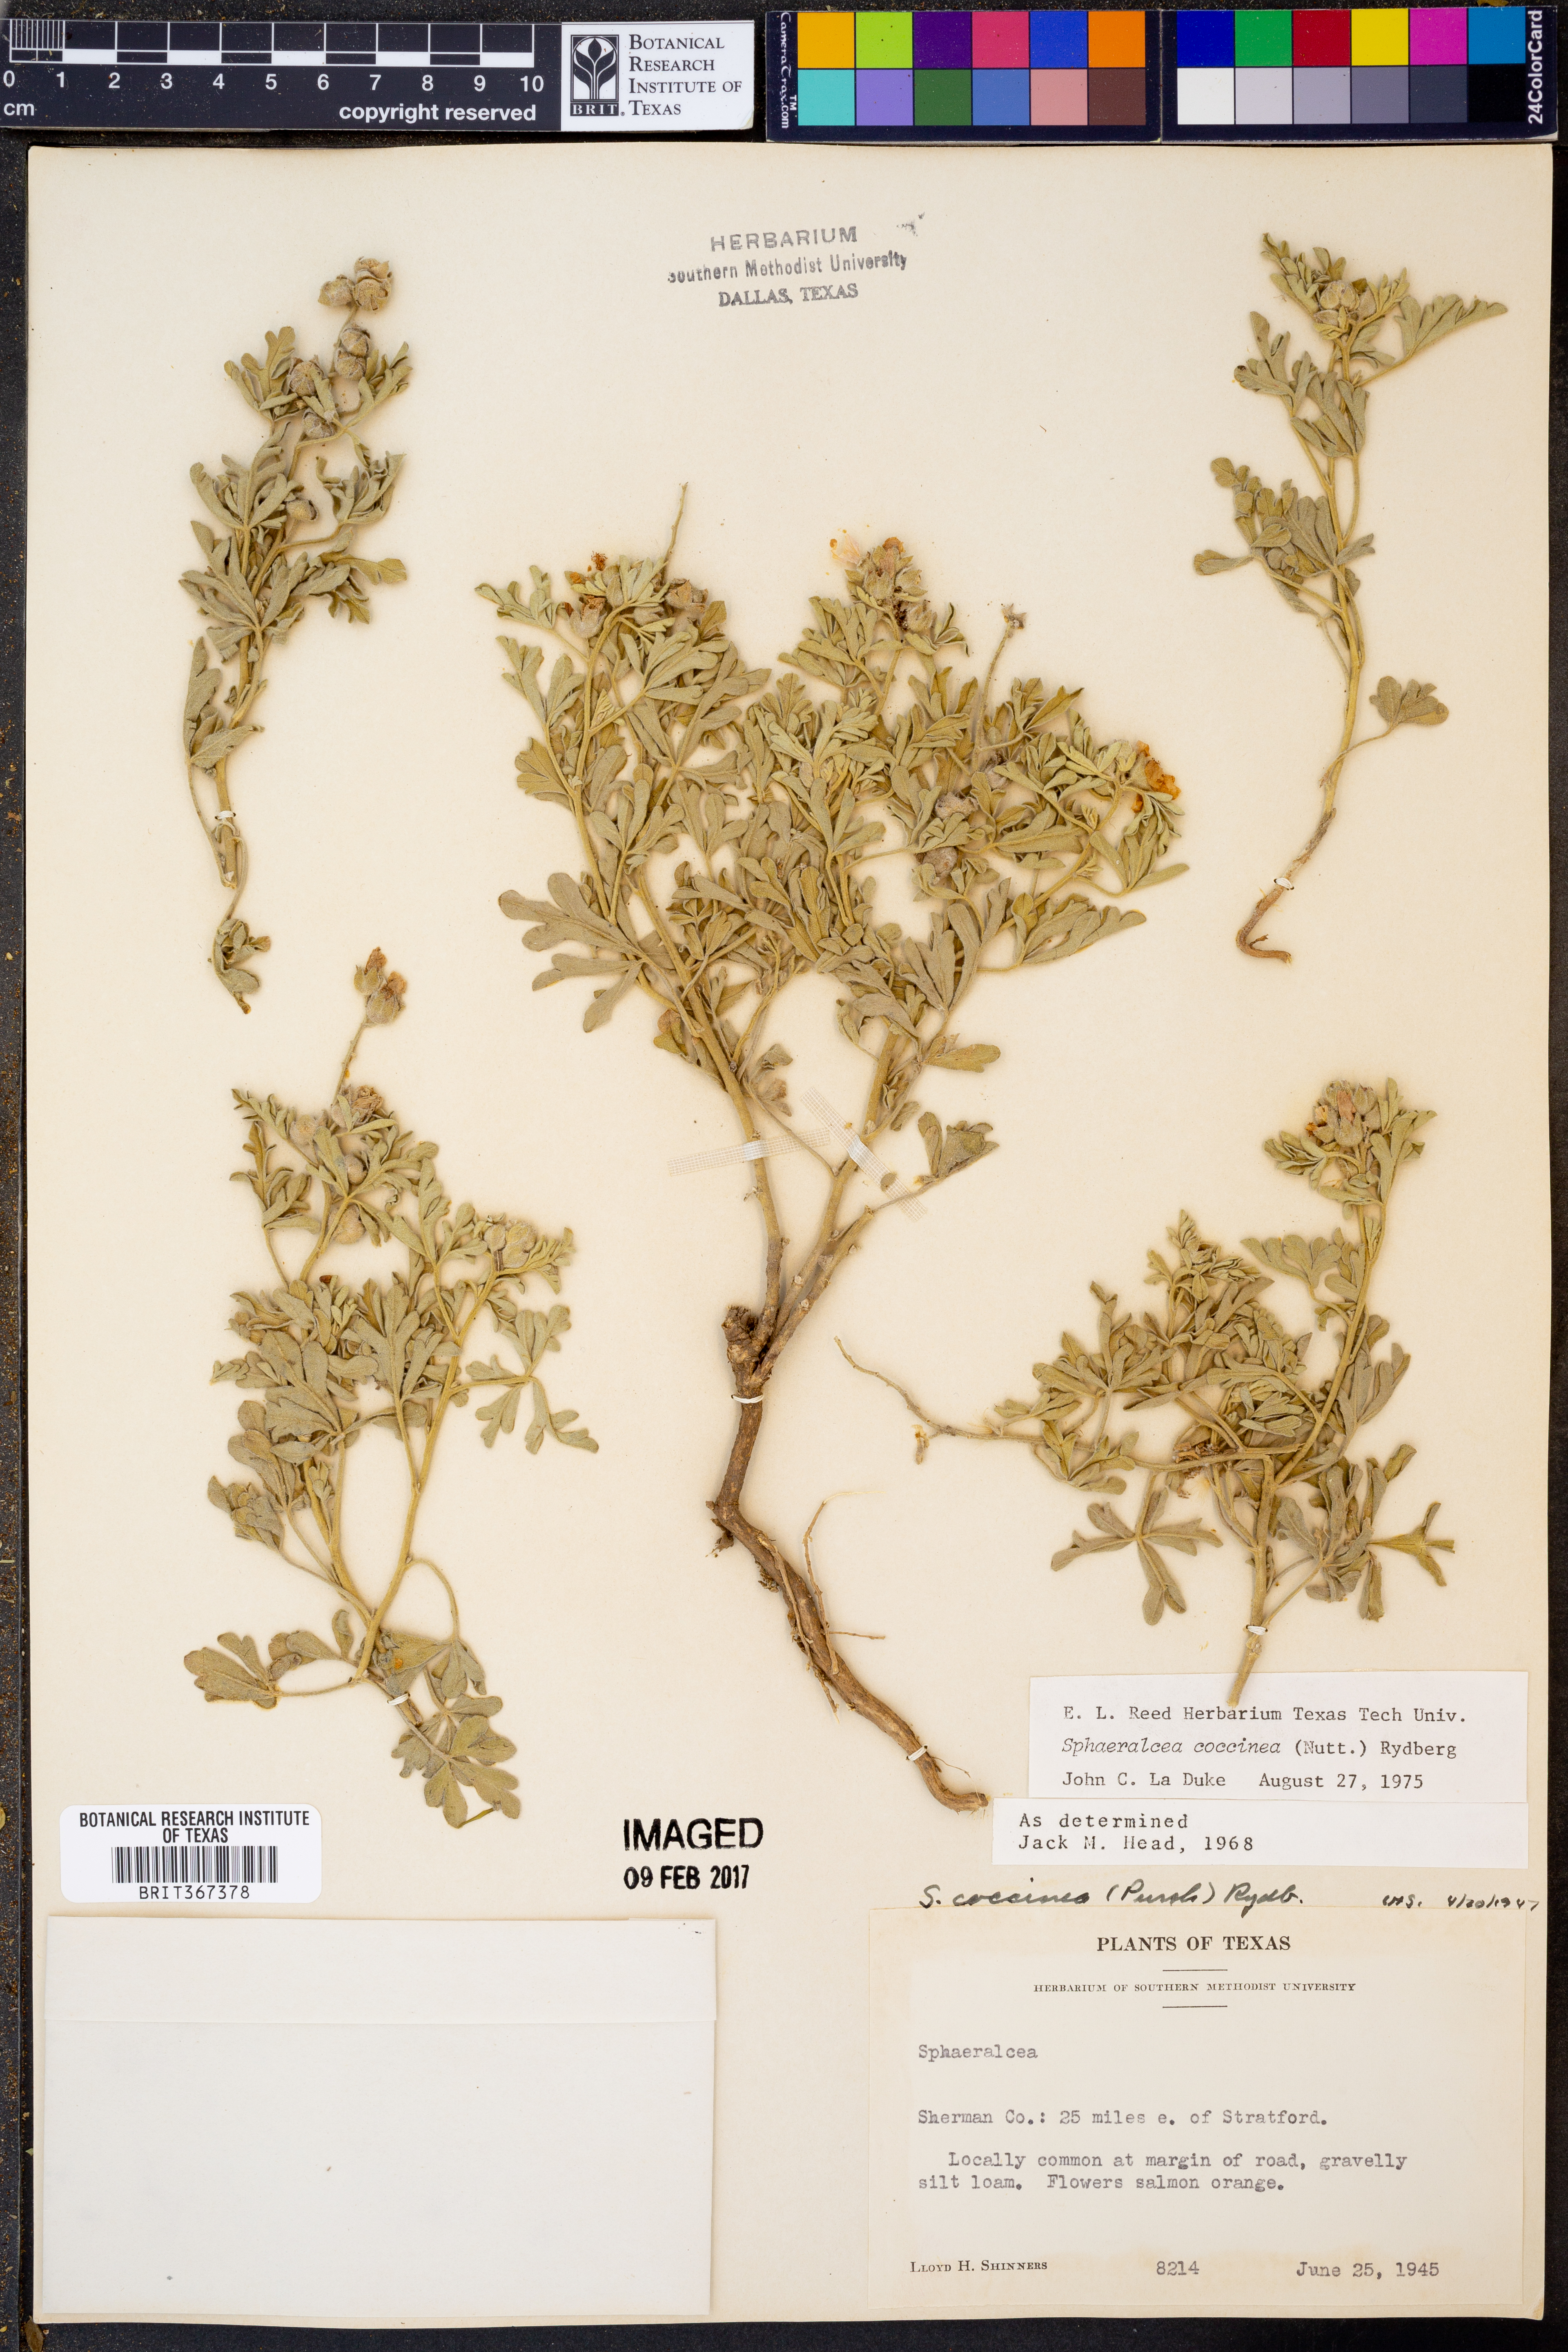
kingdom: Plantae
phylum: Tracheophyta
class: Magnoliopsida
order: Malvales
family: Malvaceae
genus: Sphaeralcea
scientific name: Sphaeralcea coccinea
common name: Moss-rose
